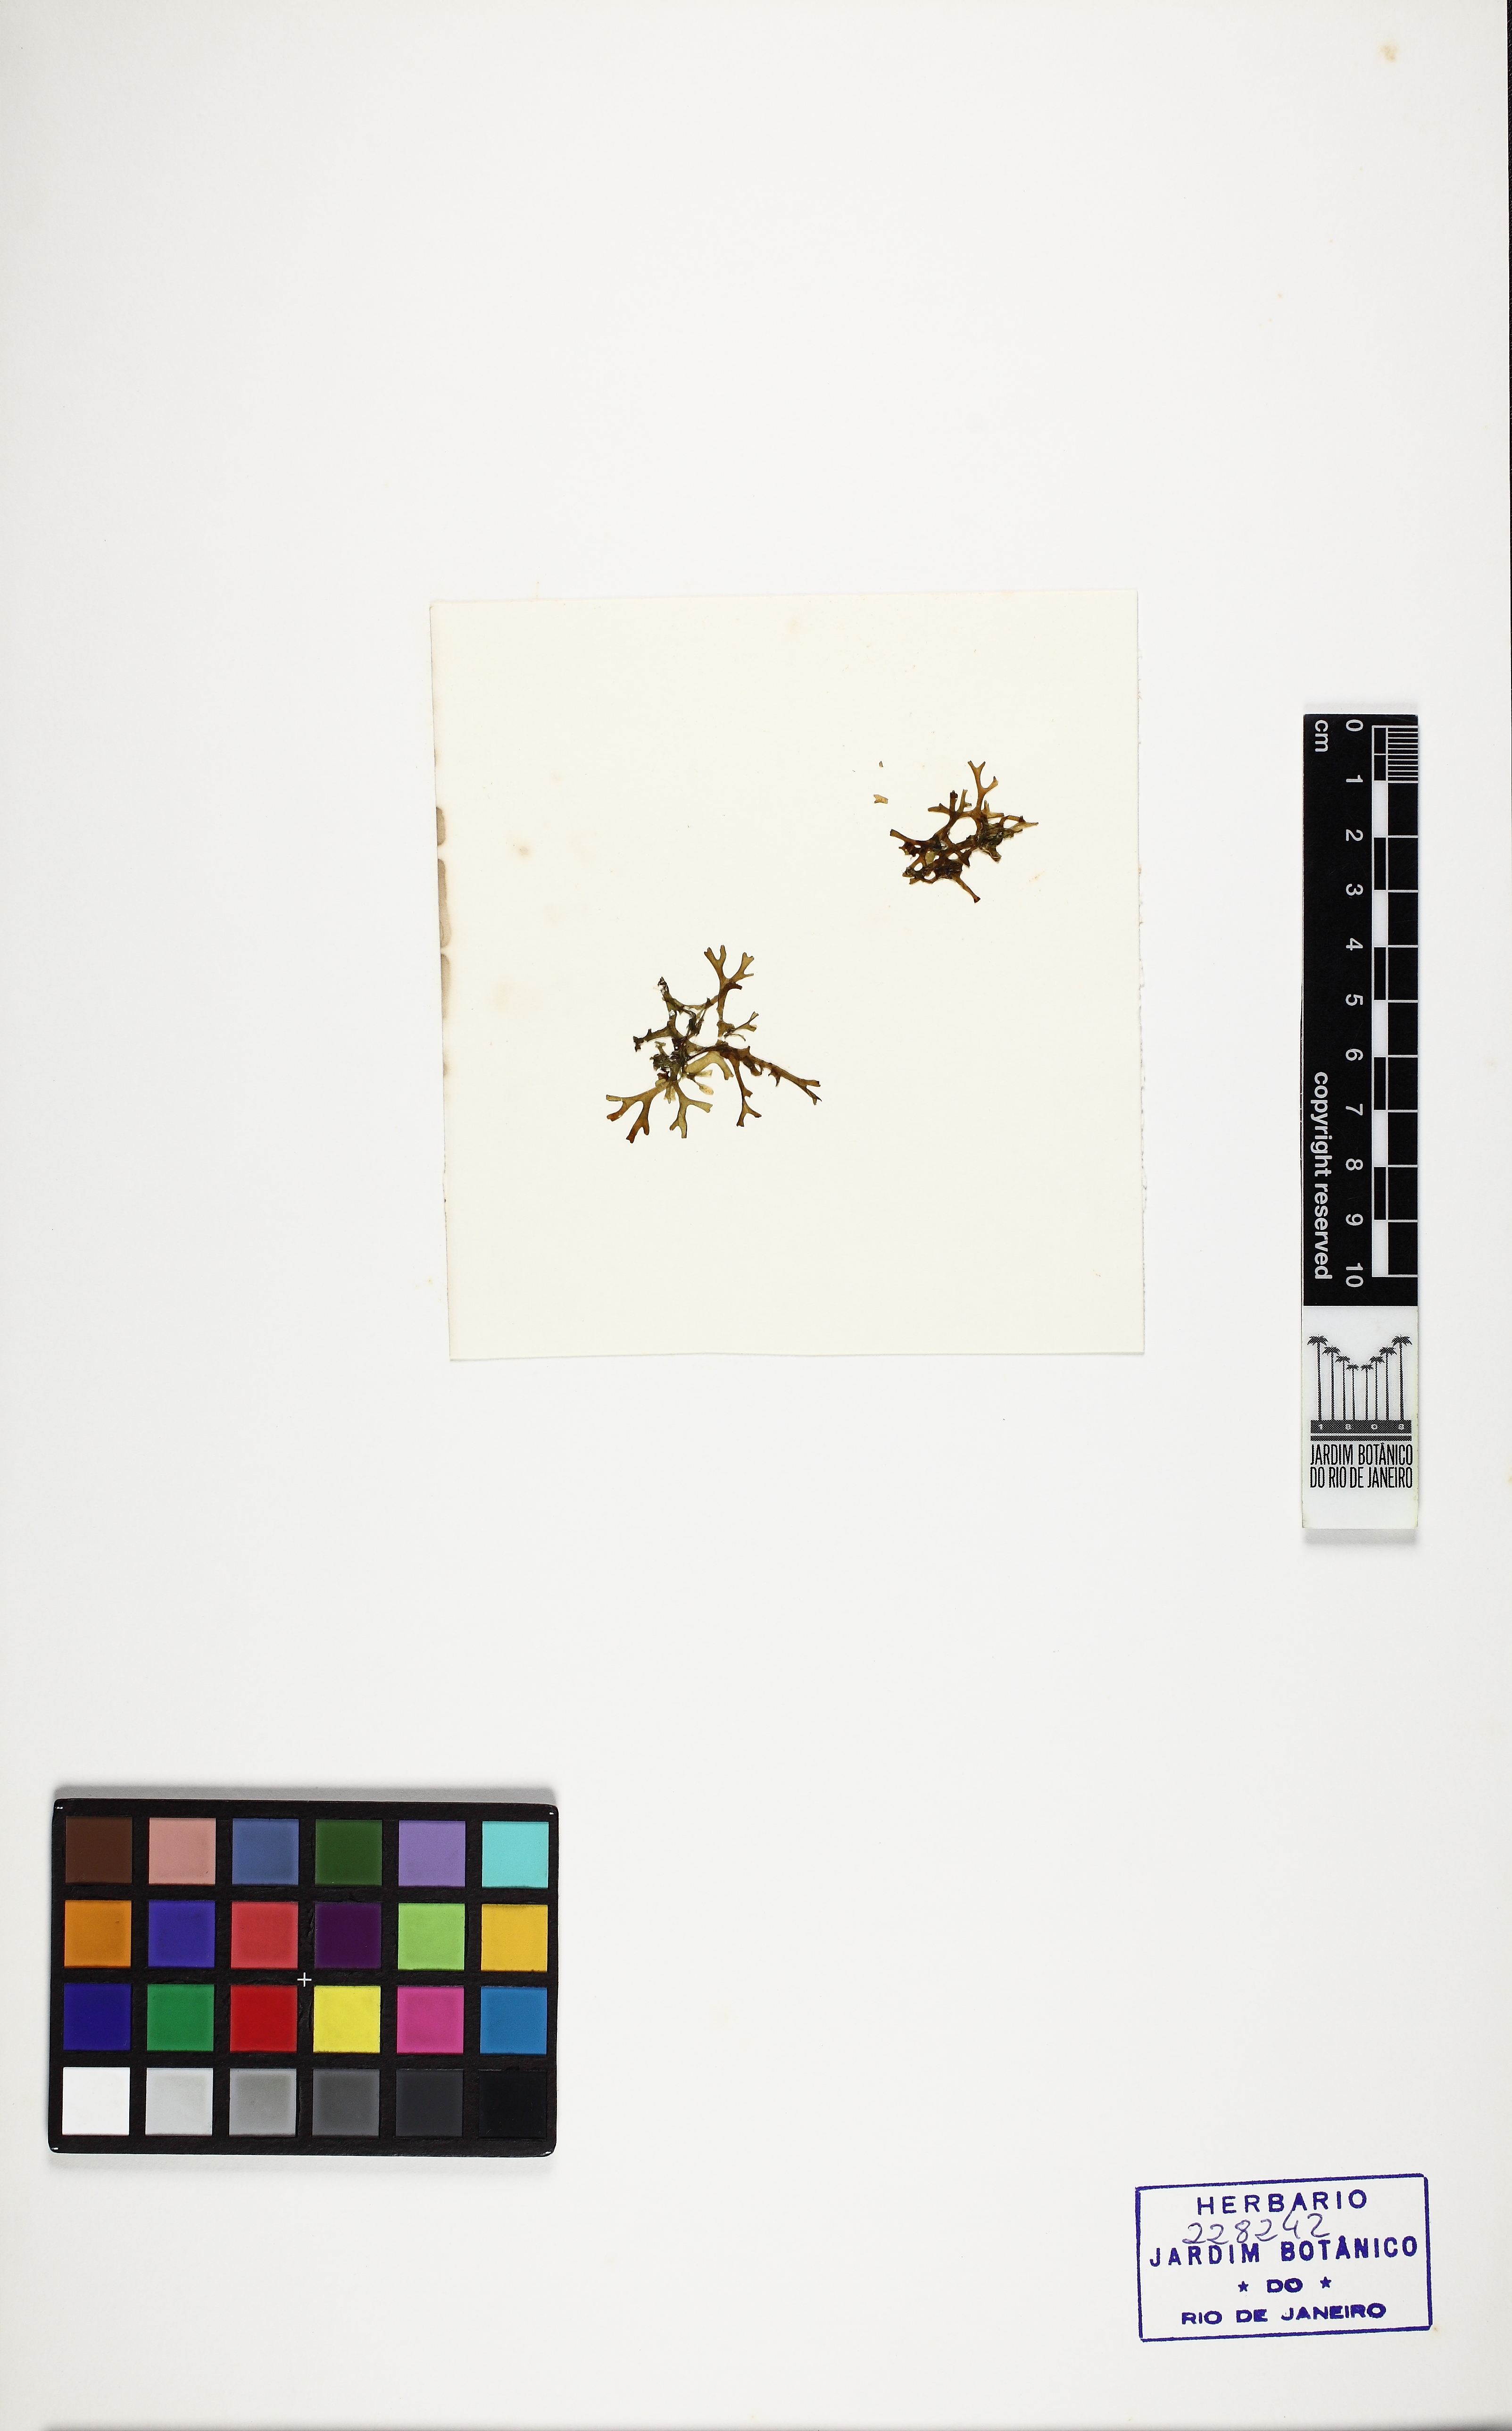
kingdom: Chromista
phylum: Ochrophyta
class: Phaeophyceae
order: Dictyotales
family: Dictyotaceae
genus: Dictyota
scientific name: Dictyota
